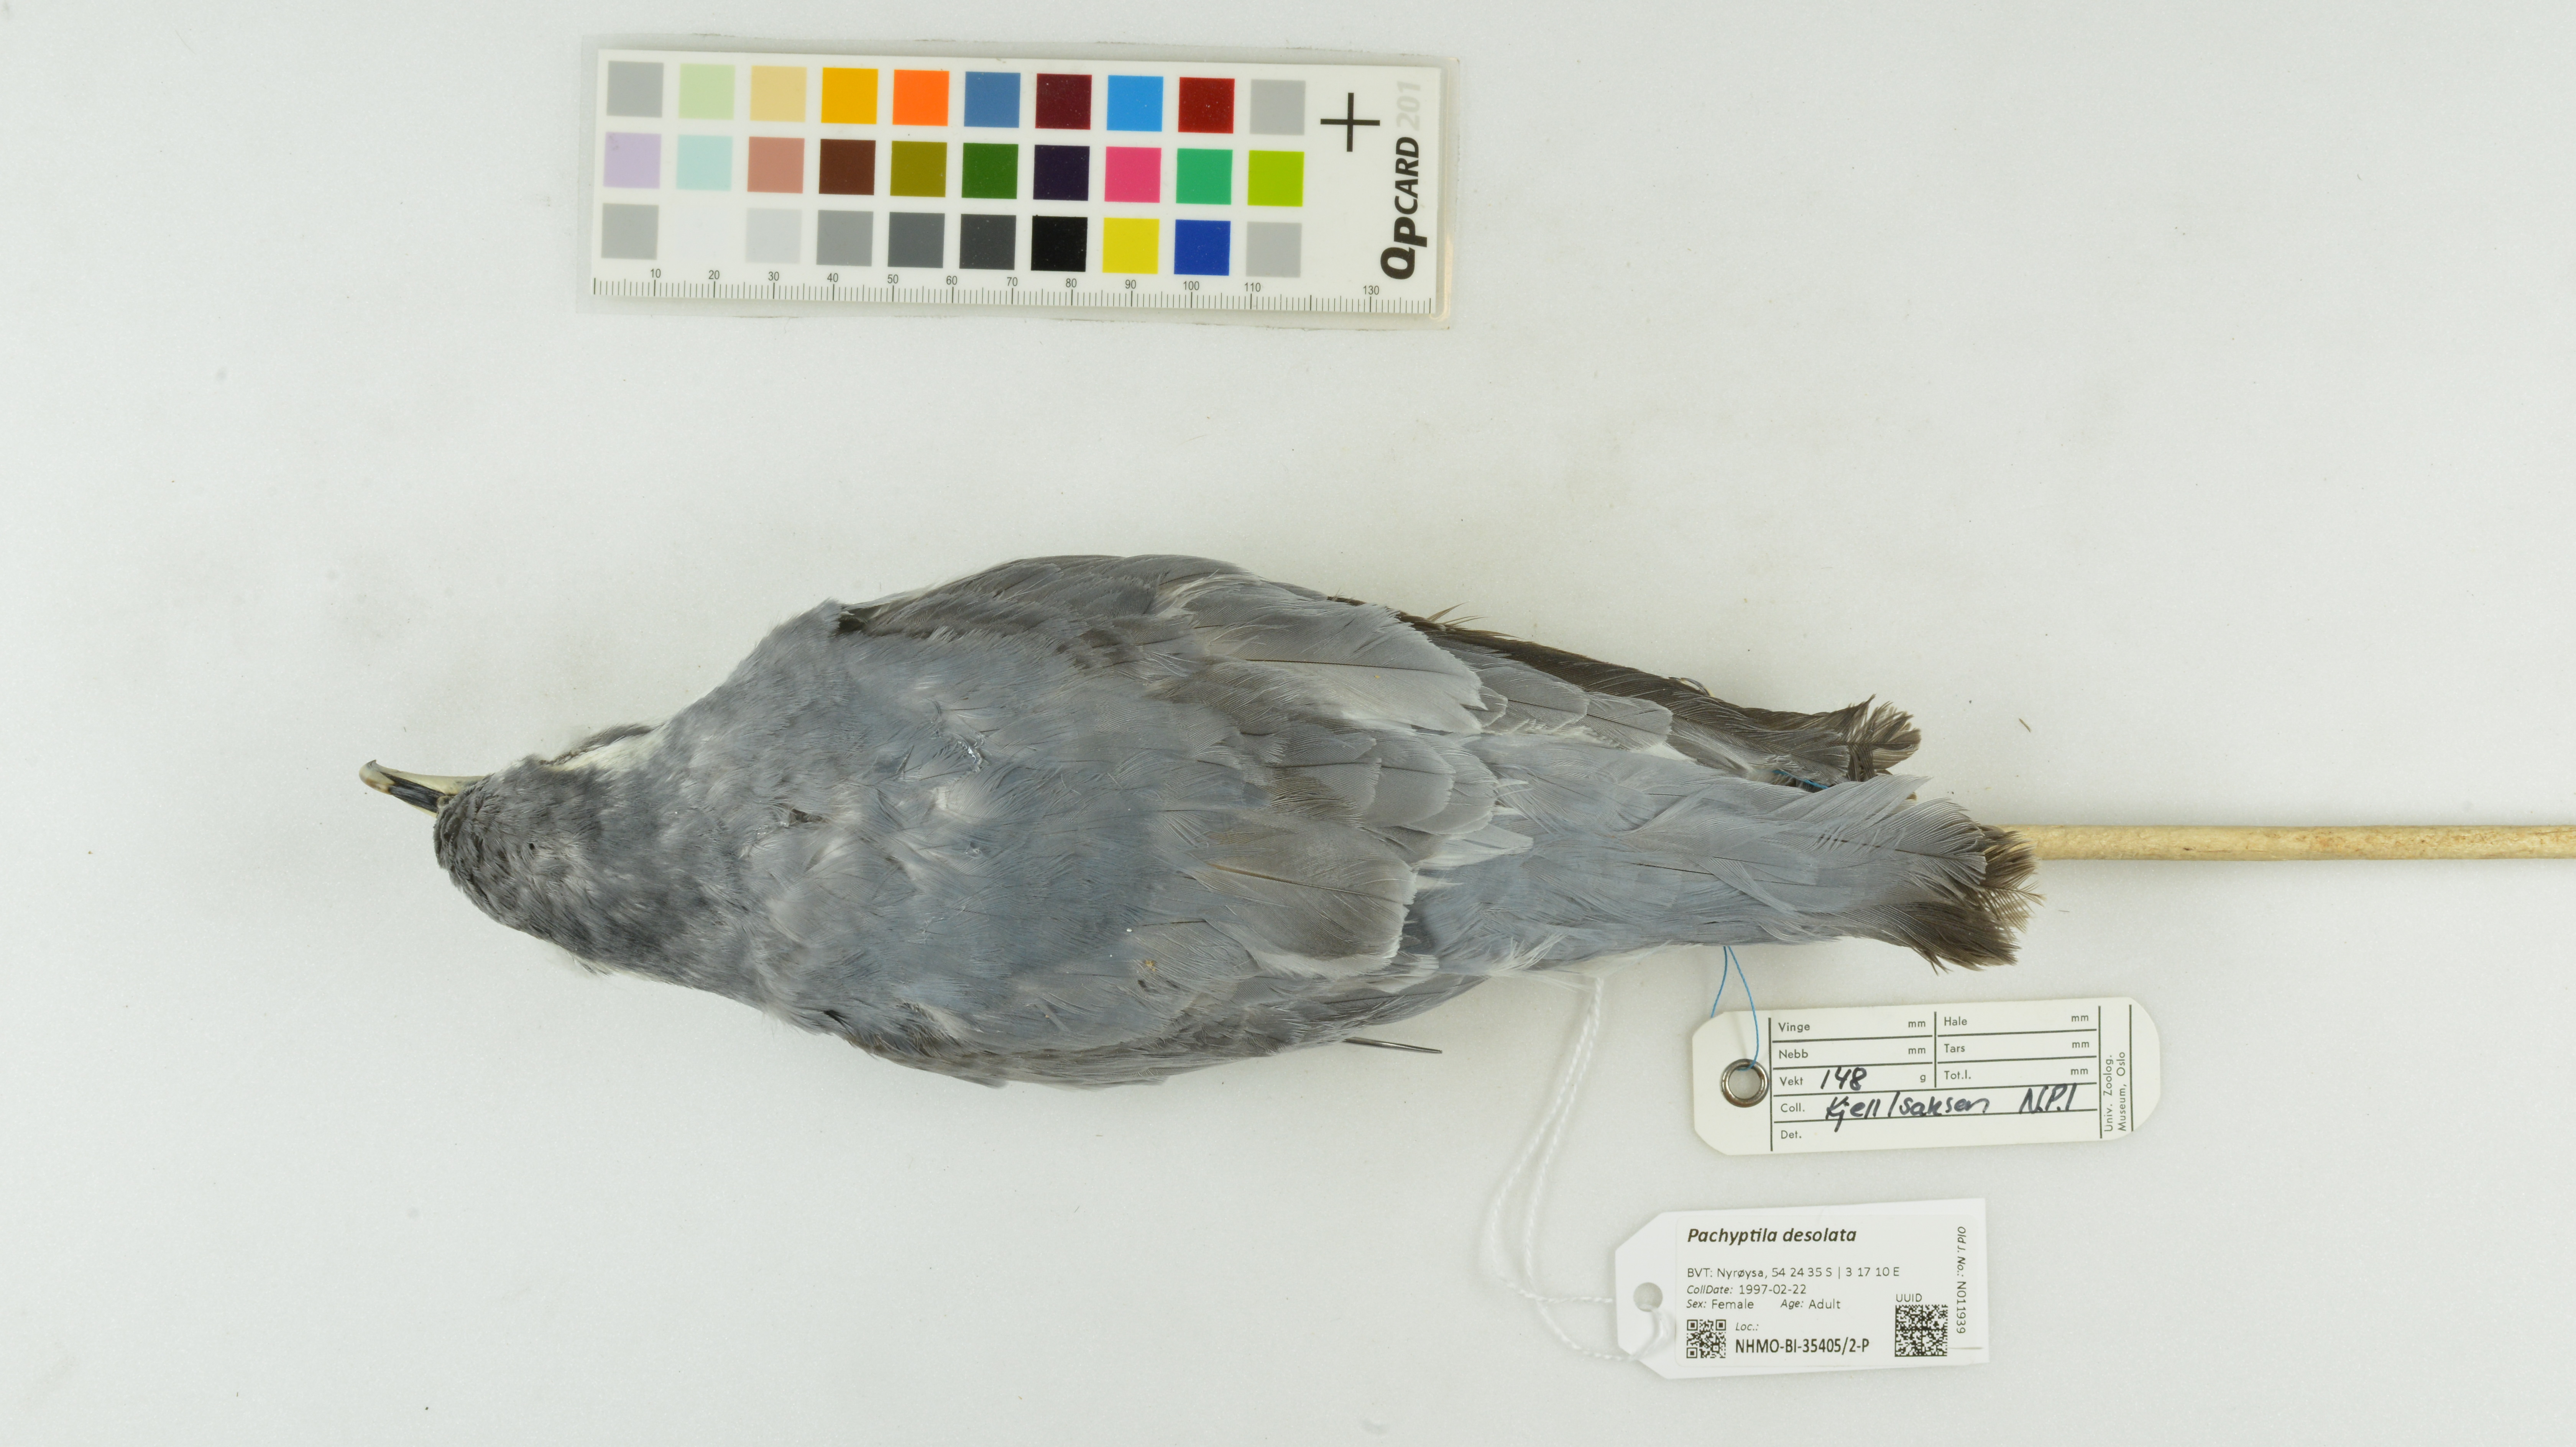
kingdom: Animalia
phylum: Chordata
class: Aves
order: Procellariiformes
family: Procellariidae
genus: Pachyptila
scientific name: Pachyptila desolata
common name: Antarctic prion
